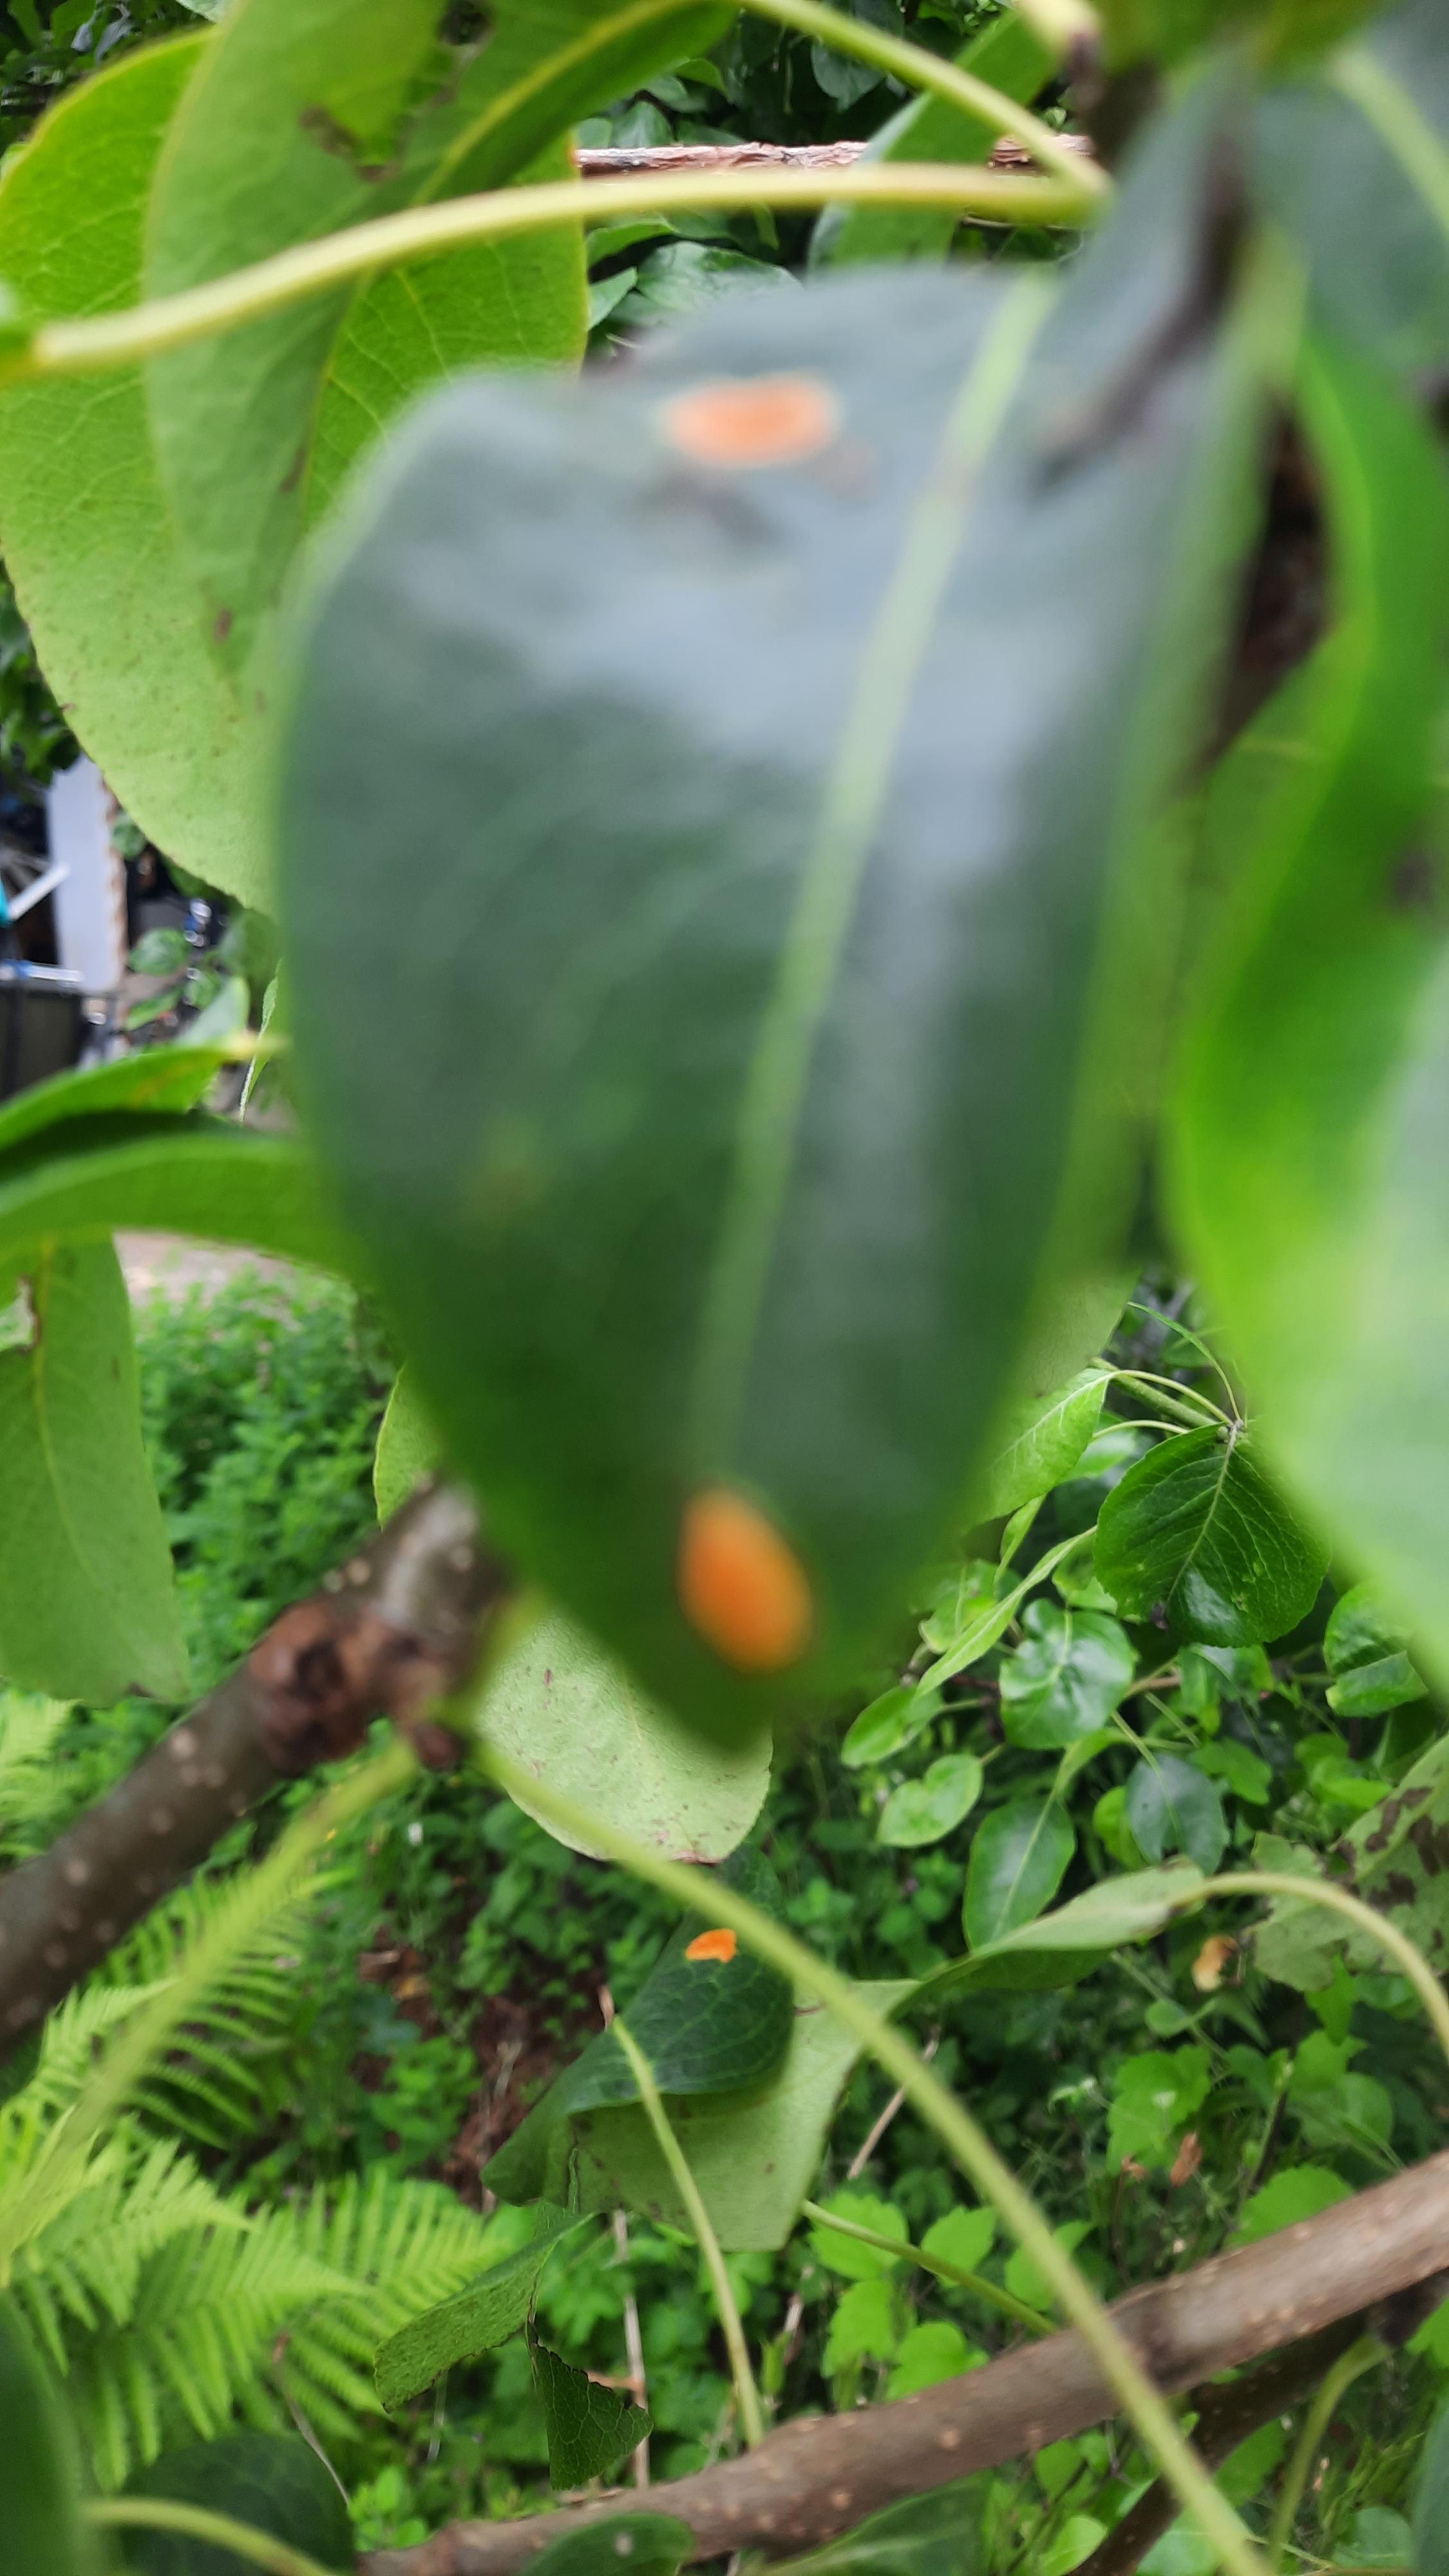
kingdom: Fungi
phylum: Basidiomycota
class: Pucciniomycetes
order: Pucciniales
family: Gymnosporangiaceae
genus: Gymnosporangium
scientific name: Gymnosporangium sabinae
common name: pæregitter-bævrerust
